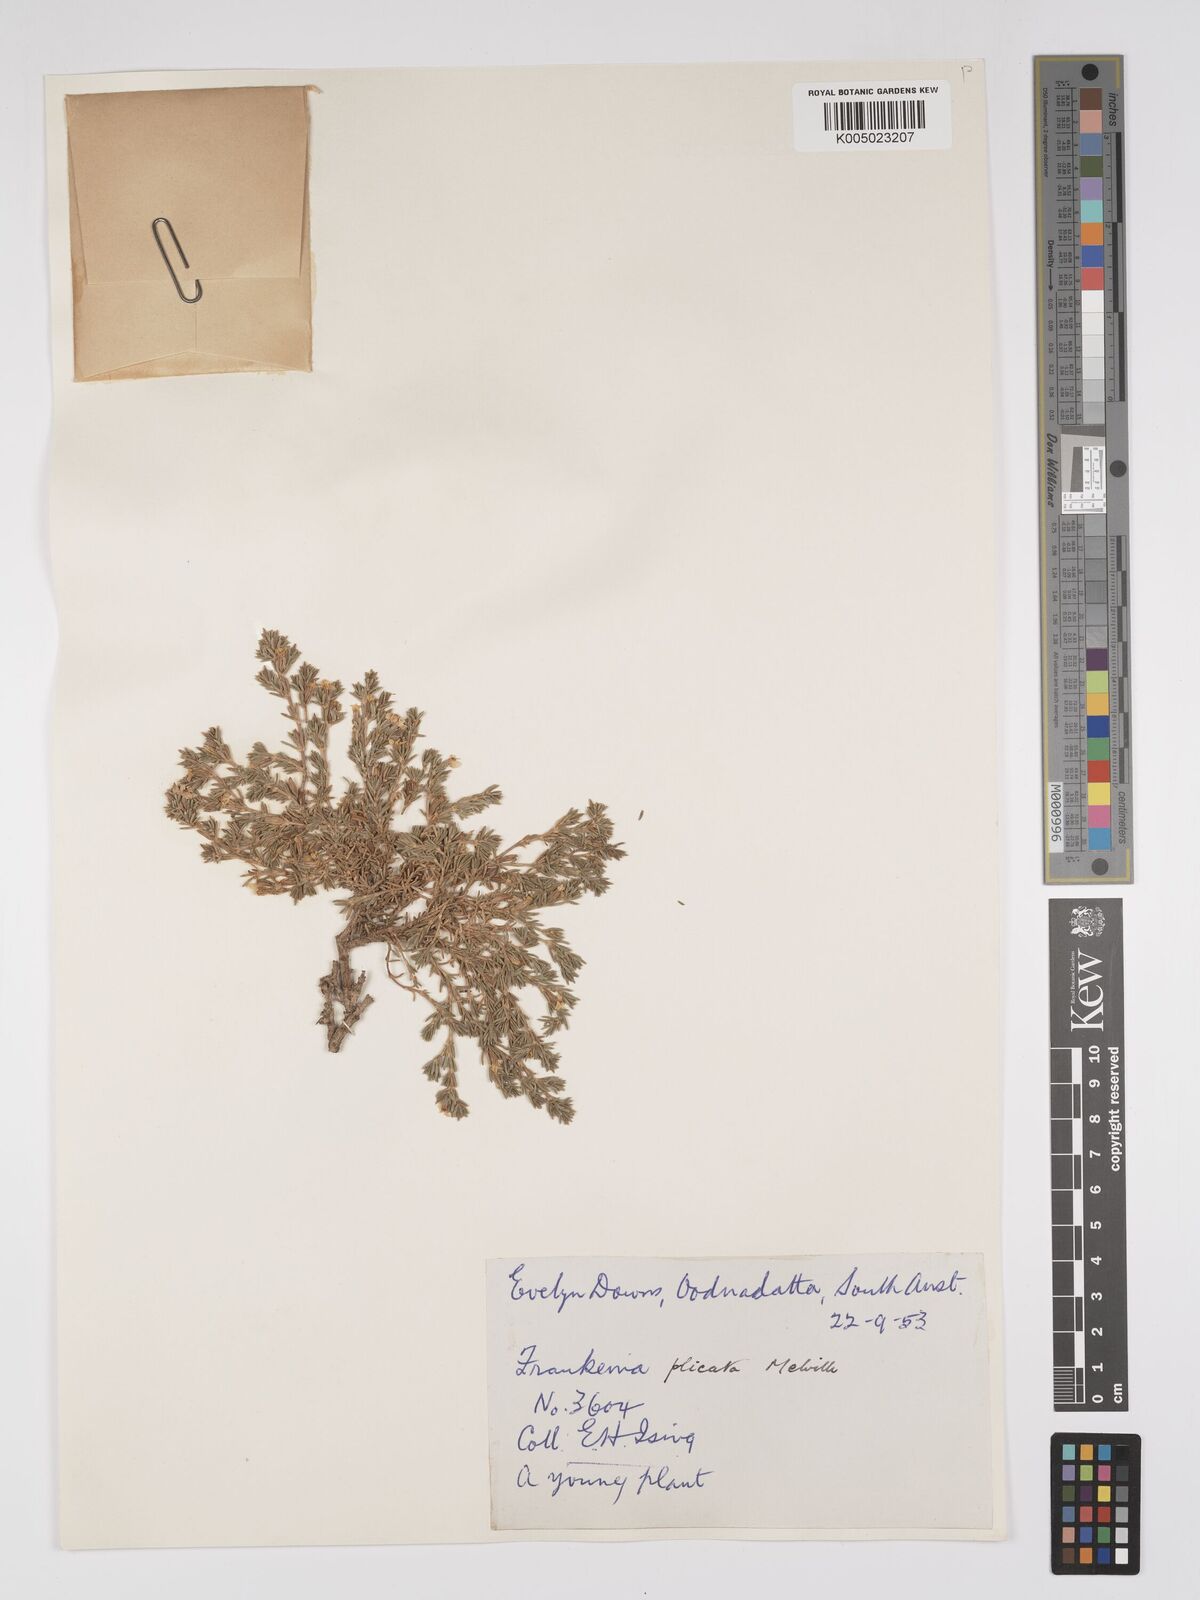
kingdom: Plantae
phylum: Tracheophyta
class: Magnoliopsida
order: Caryophyllales
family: Frankeniaceae
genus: Frankenia
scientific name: Frankenia plicata
